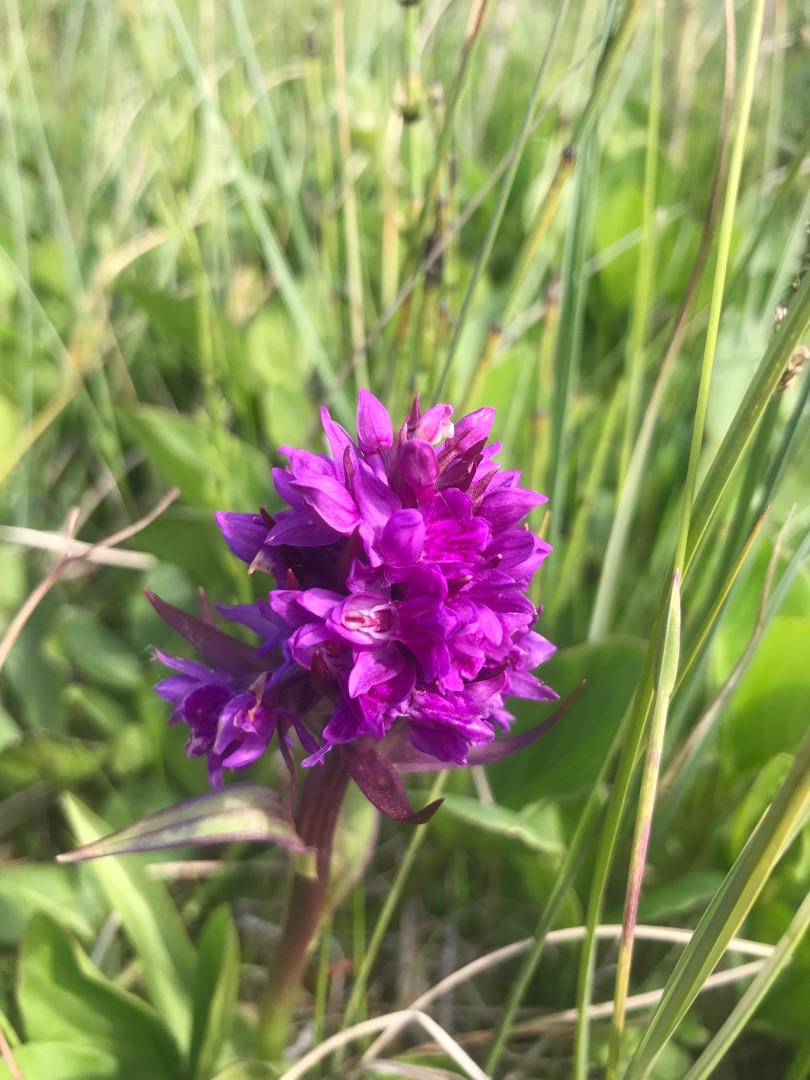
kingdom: Plantae
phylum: Tracheophyta
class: Liliopsida
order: Asparagales
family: Orchidaceae
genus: Dactylorhiza
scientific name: Dactylorhiza majalis
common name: Purpur-gøgeurt
